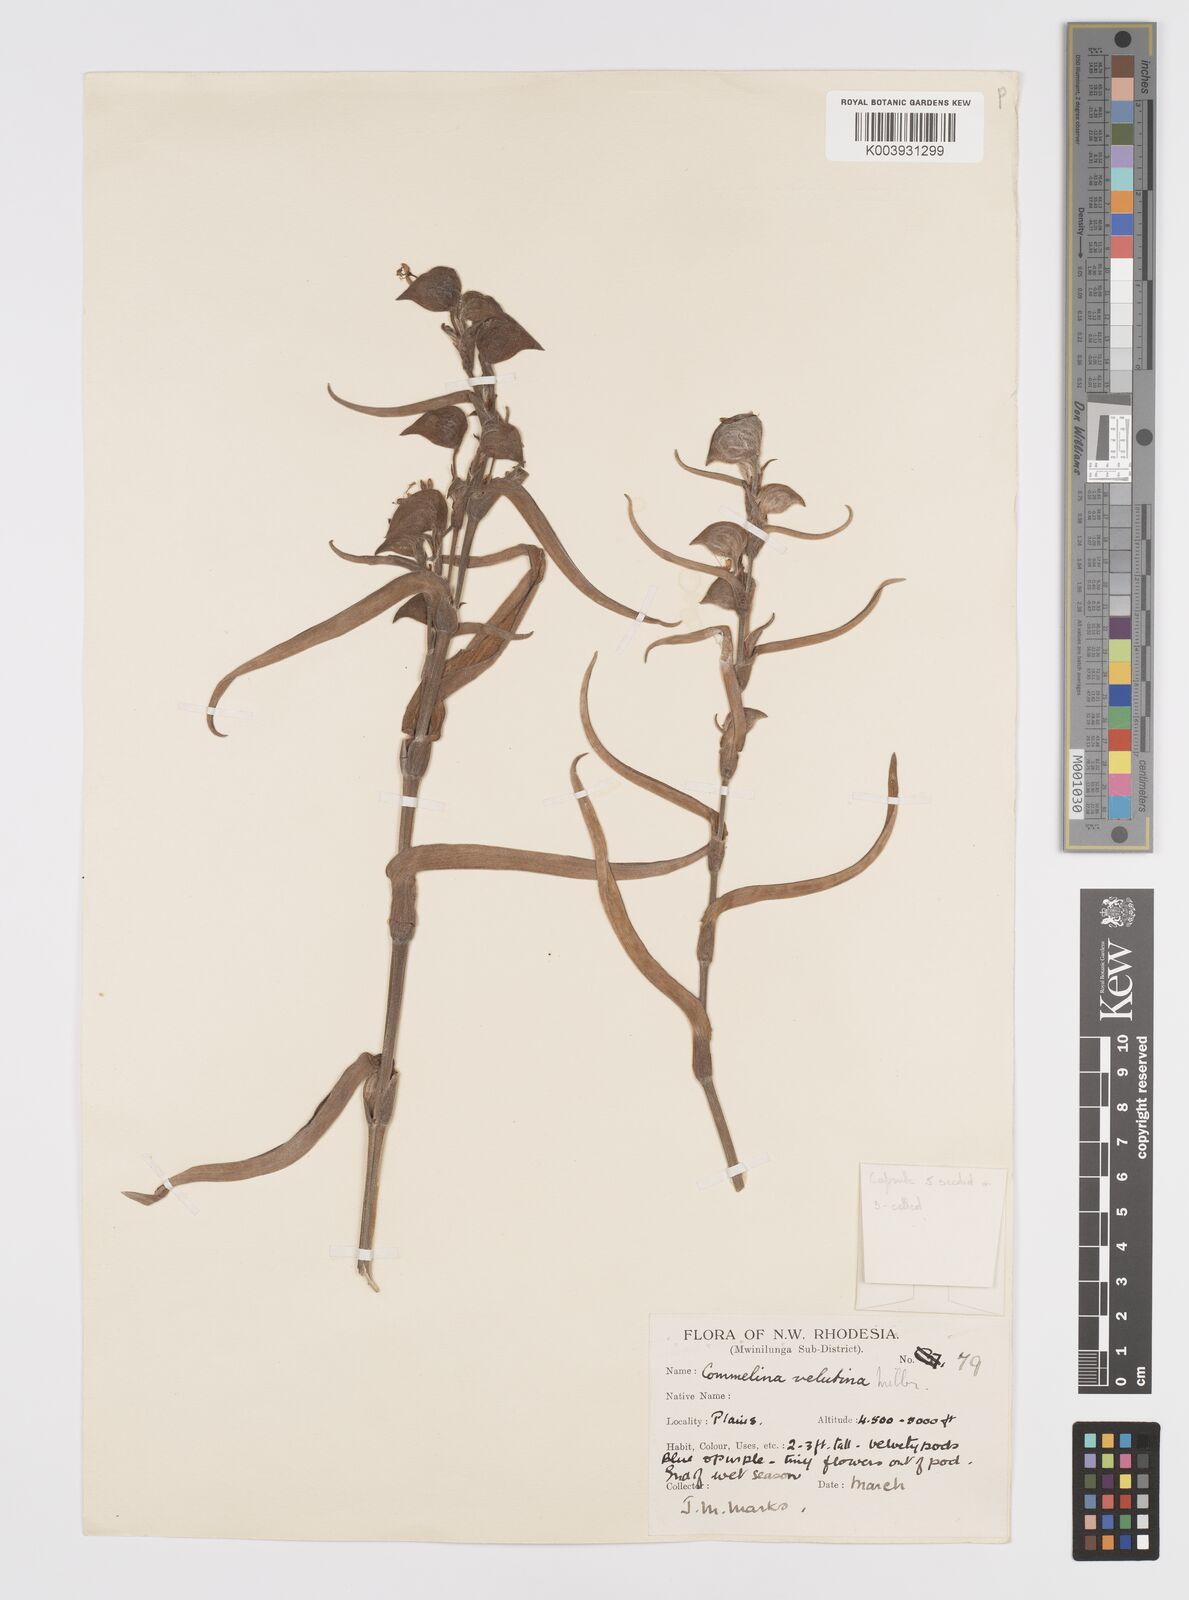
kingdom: Plantae
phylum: Tracheophyta
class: Liliopsida
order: Commelinales
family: Commelinaceae
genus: Commelina
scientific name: Commelina velutina
